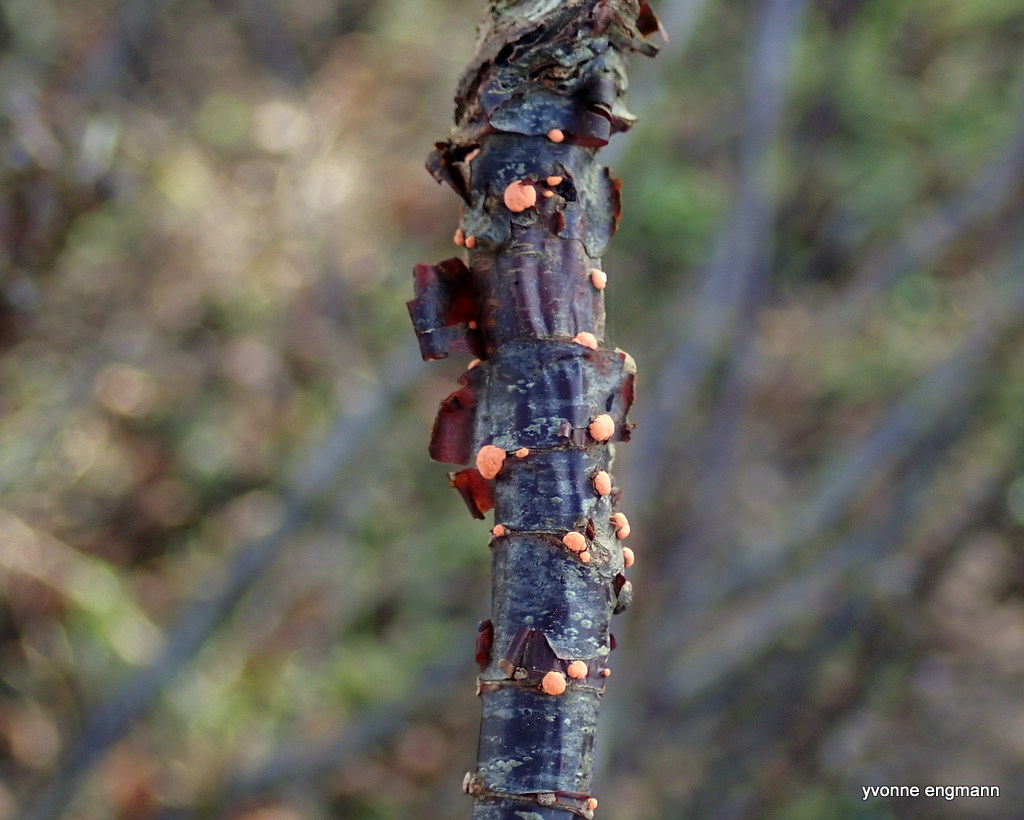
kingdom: Fungi
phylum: Ascomycota
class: Sordariomycetes
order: Hypocreales
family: Nectriaceae
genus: Nectria
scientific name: Nectria cinnabarina
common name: almindelig cinnobersvamp
